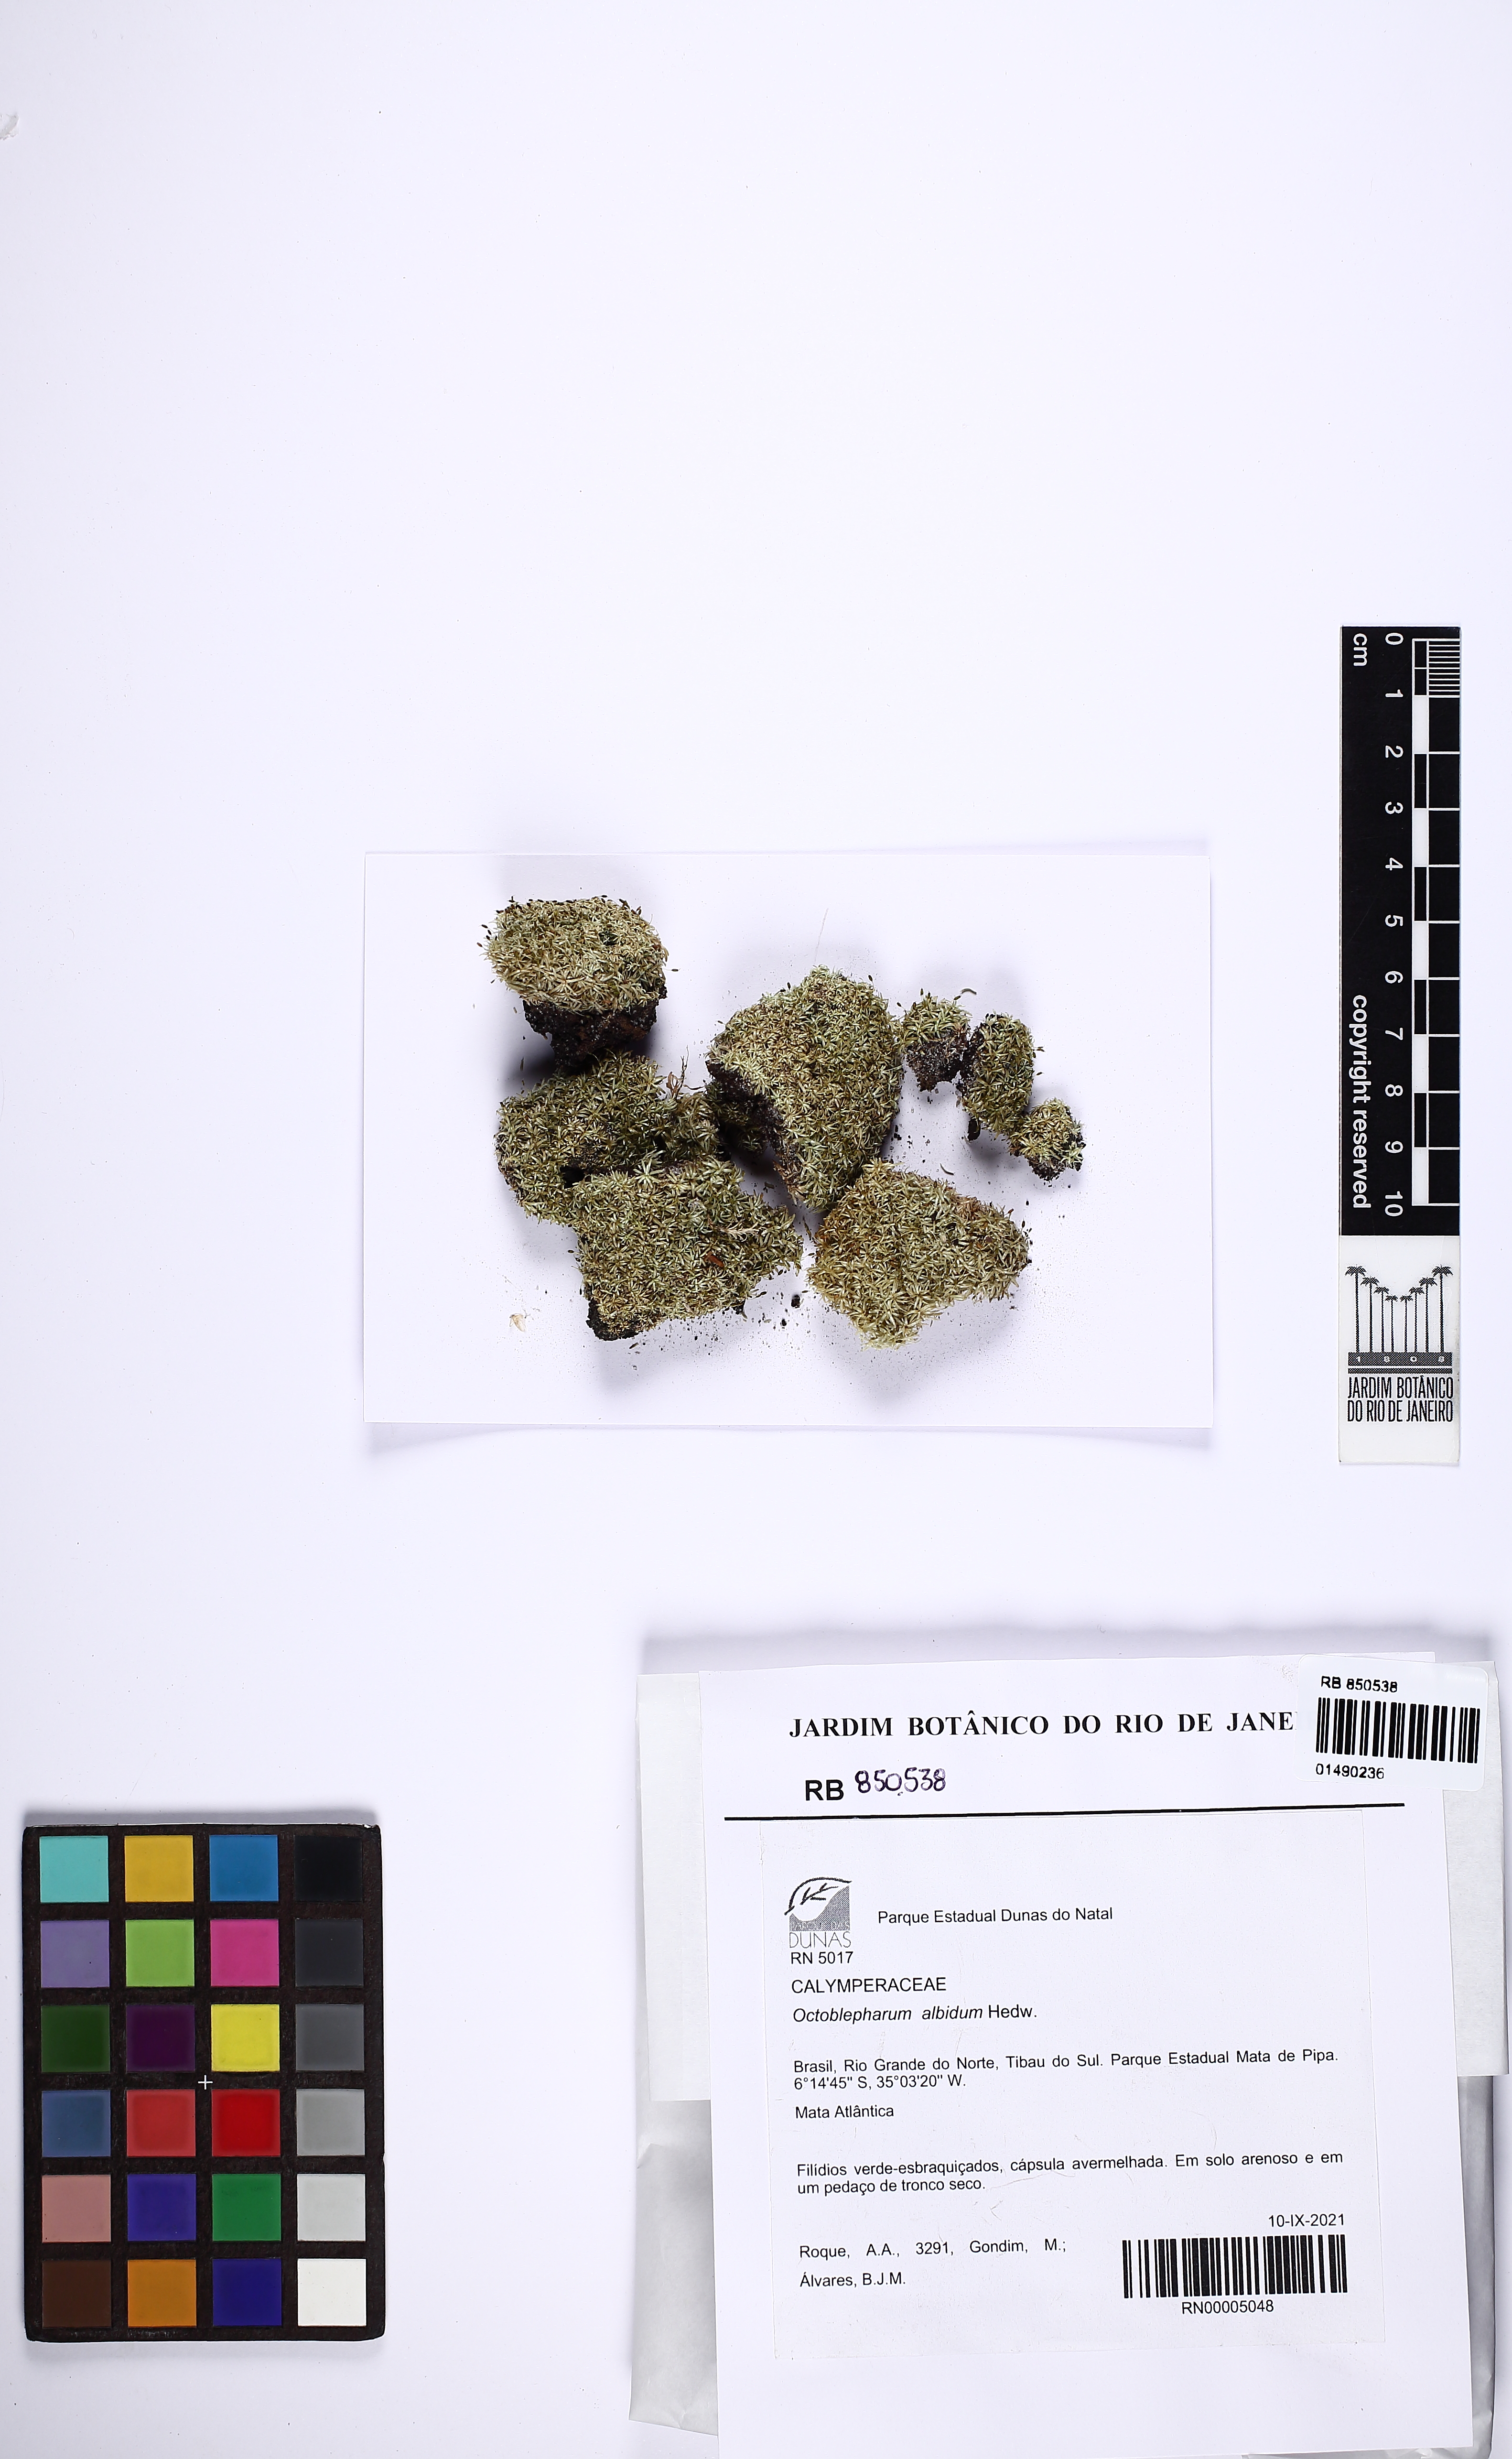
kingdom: Plantae
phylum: Bryophyta
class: Bryopsida
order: Dicranales
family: Octoblepharaceae
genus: Octoblepharum
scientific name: Octoblepharum albidum
